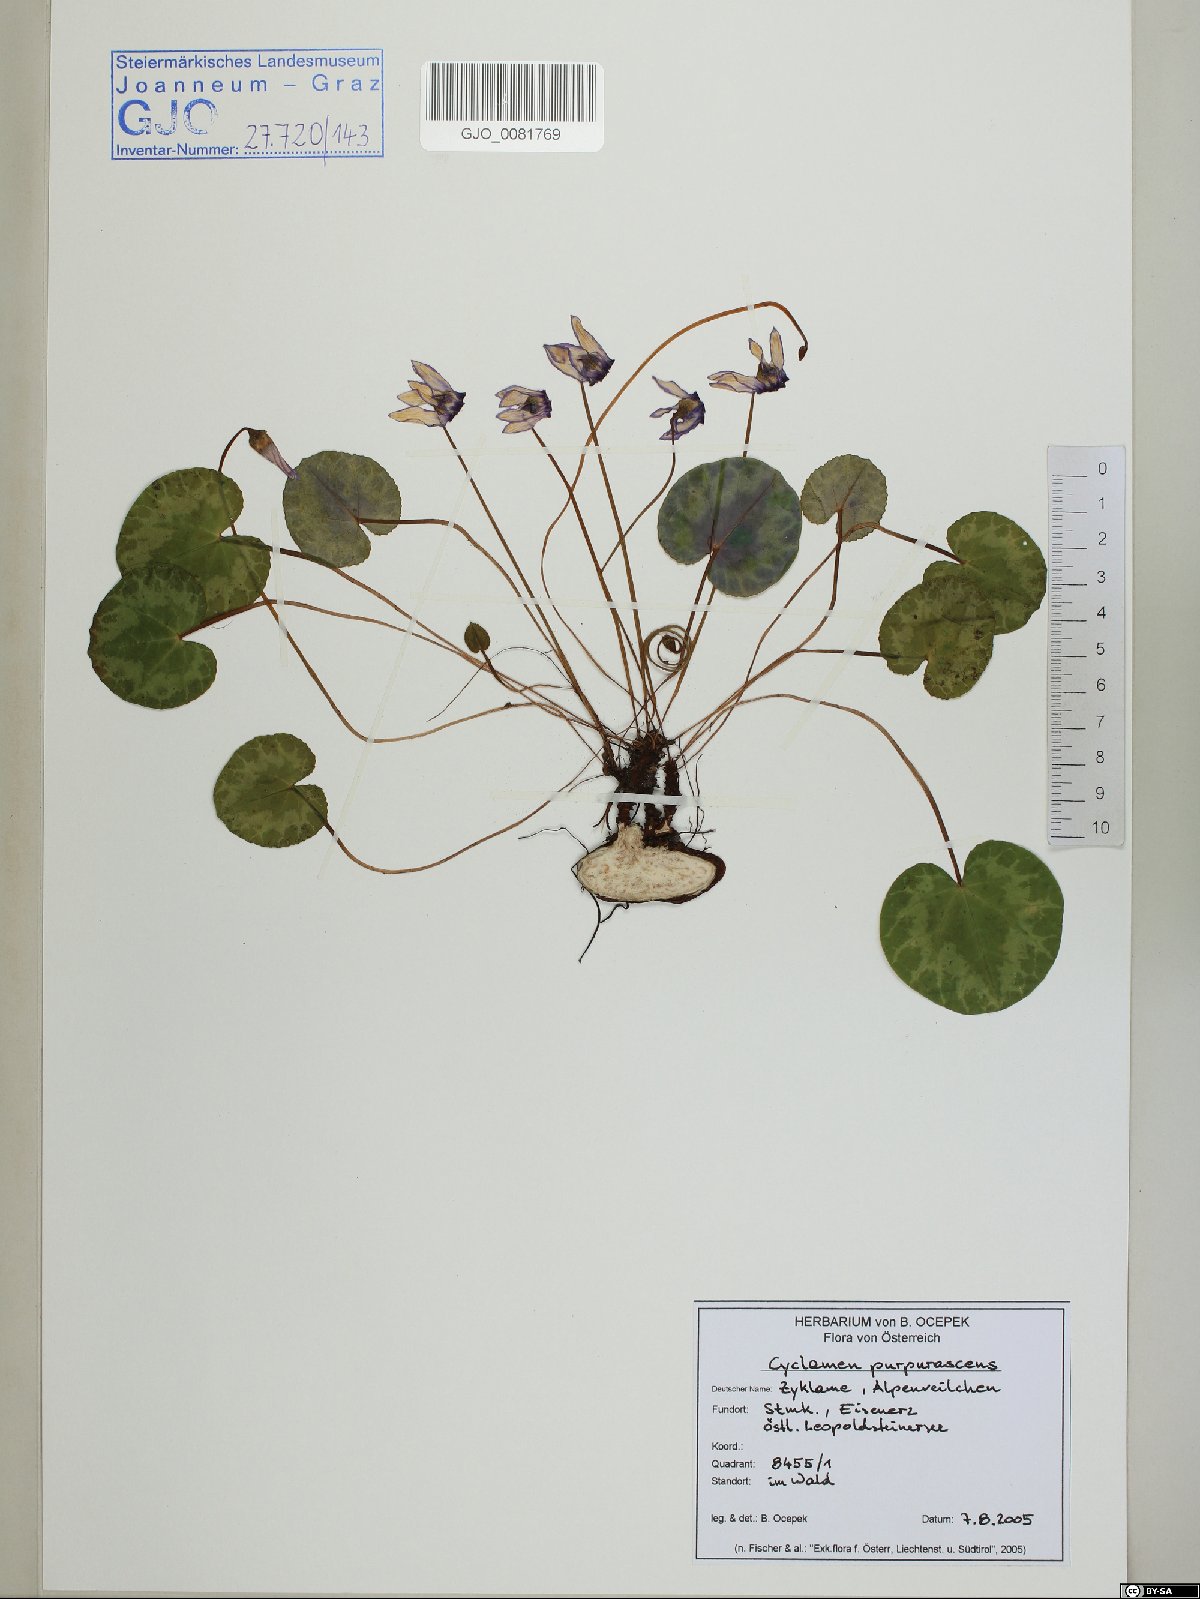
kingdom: Plantae
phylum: Tracheophyta
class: Magnoliopsida
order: Ericales
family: Primulaceae
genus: Cyclamen
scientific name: Cyclamen purpurascens
